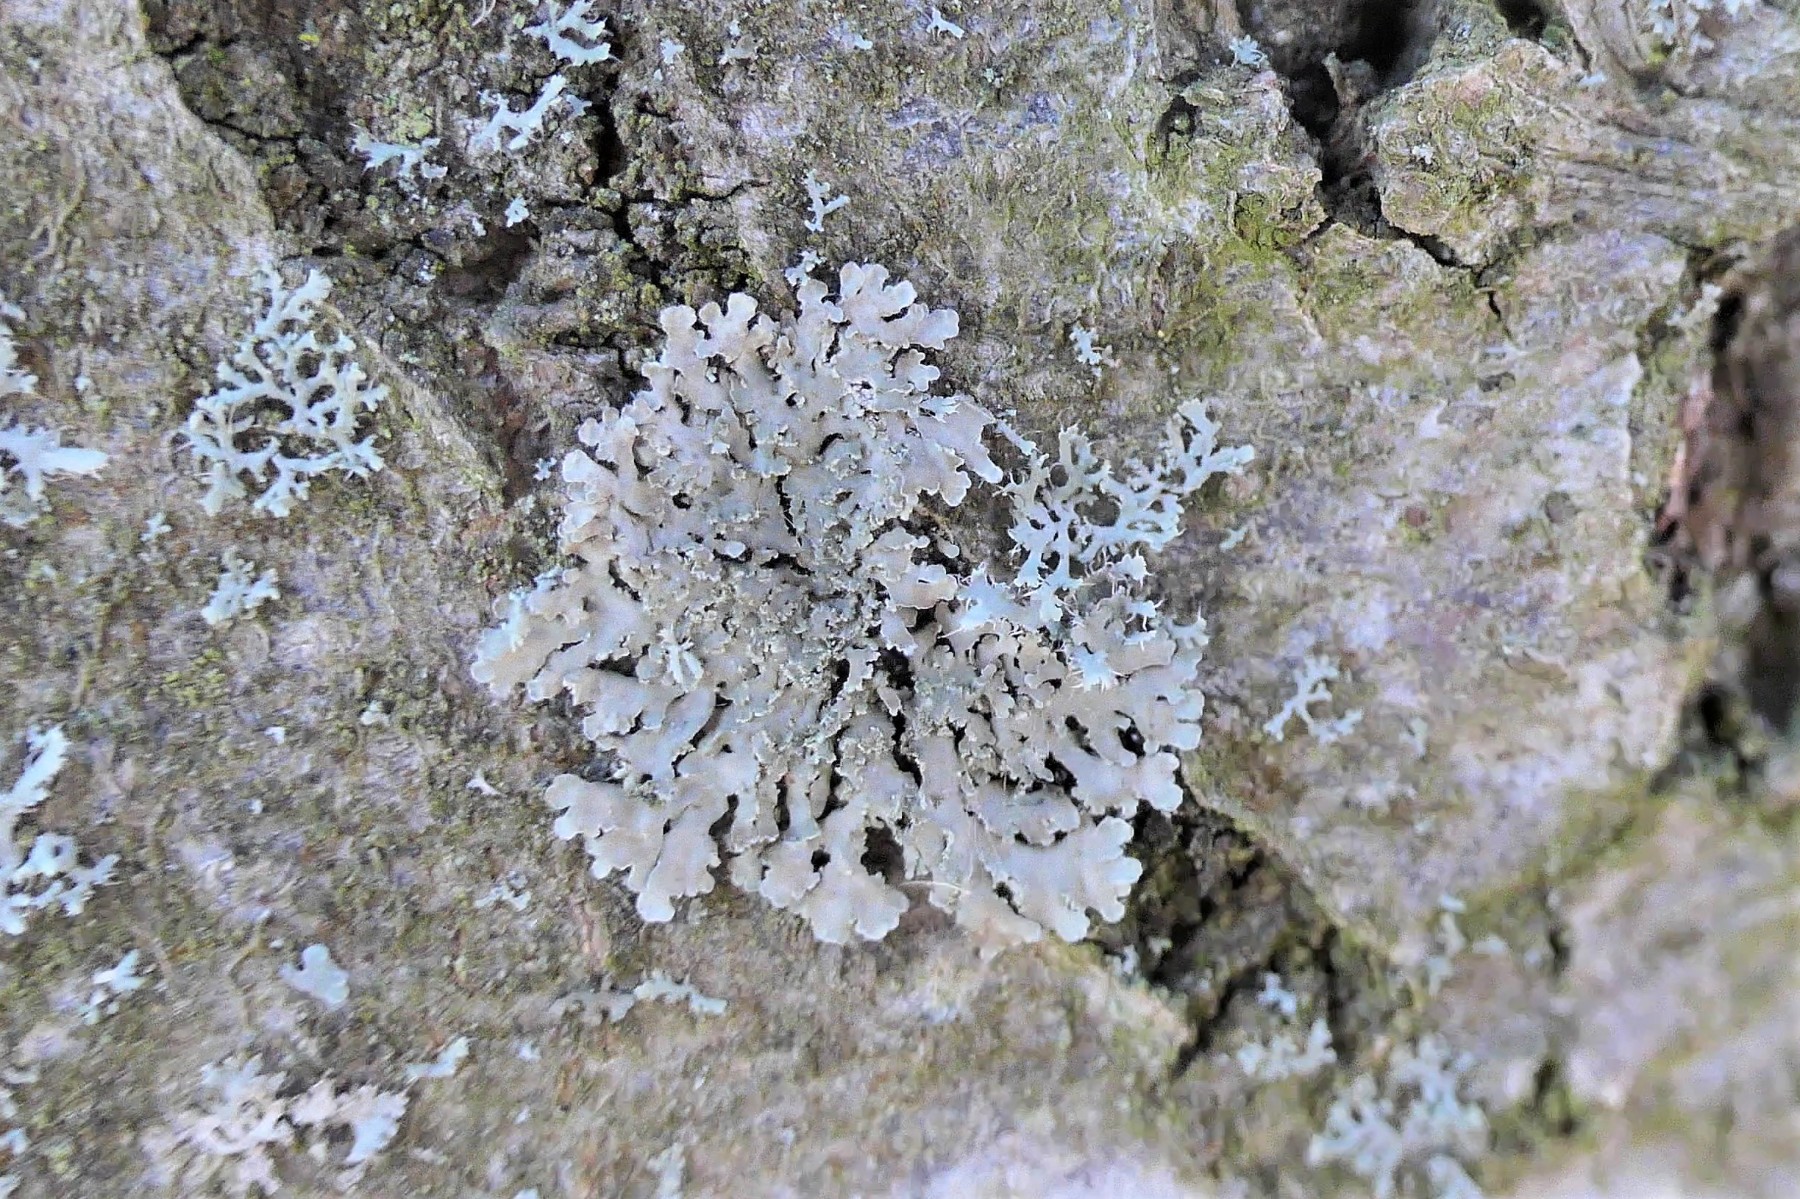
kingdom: Fungi
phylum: Ascomycota
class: Lecanoromycetes
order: Caliciales
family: Physciaceae
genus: Phaeophyscia
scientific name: Phaeophyscia orbicularis
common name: grågrøn rosetlav
